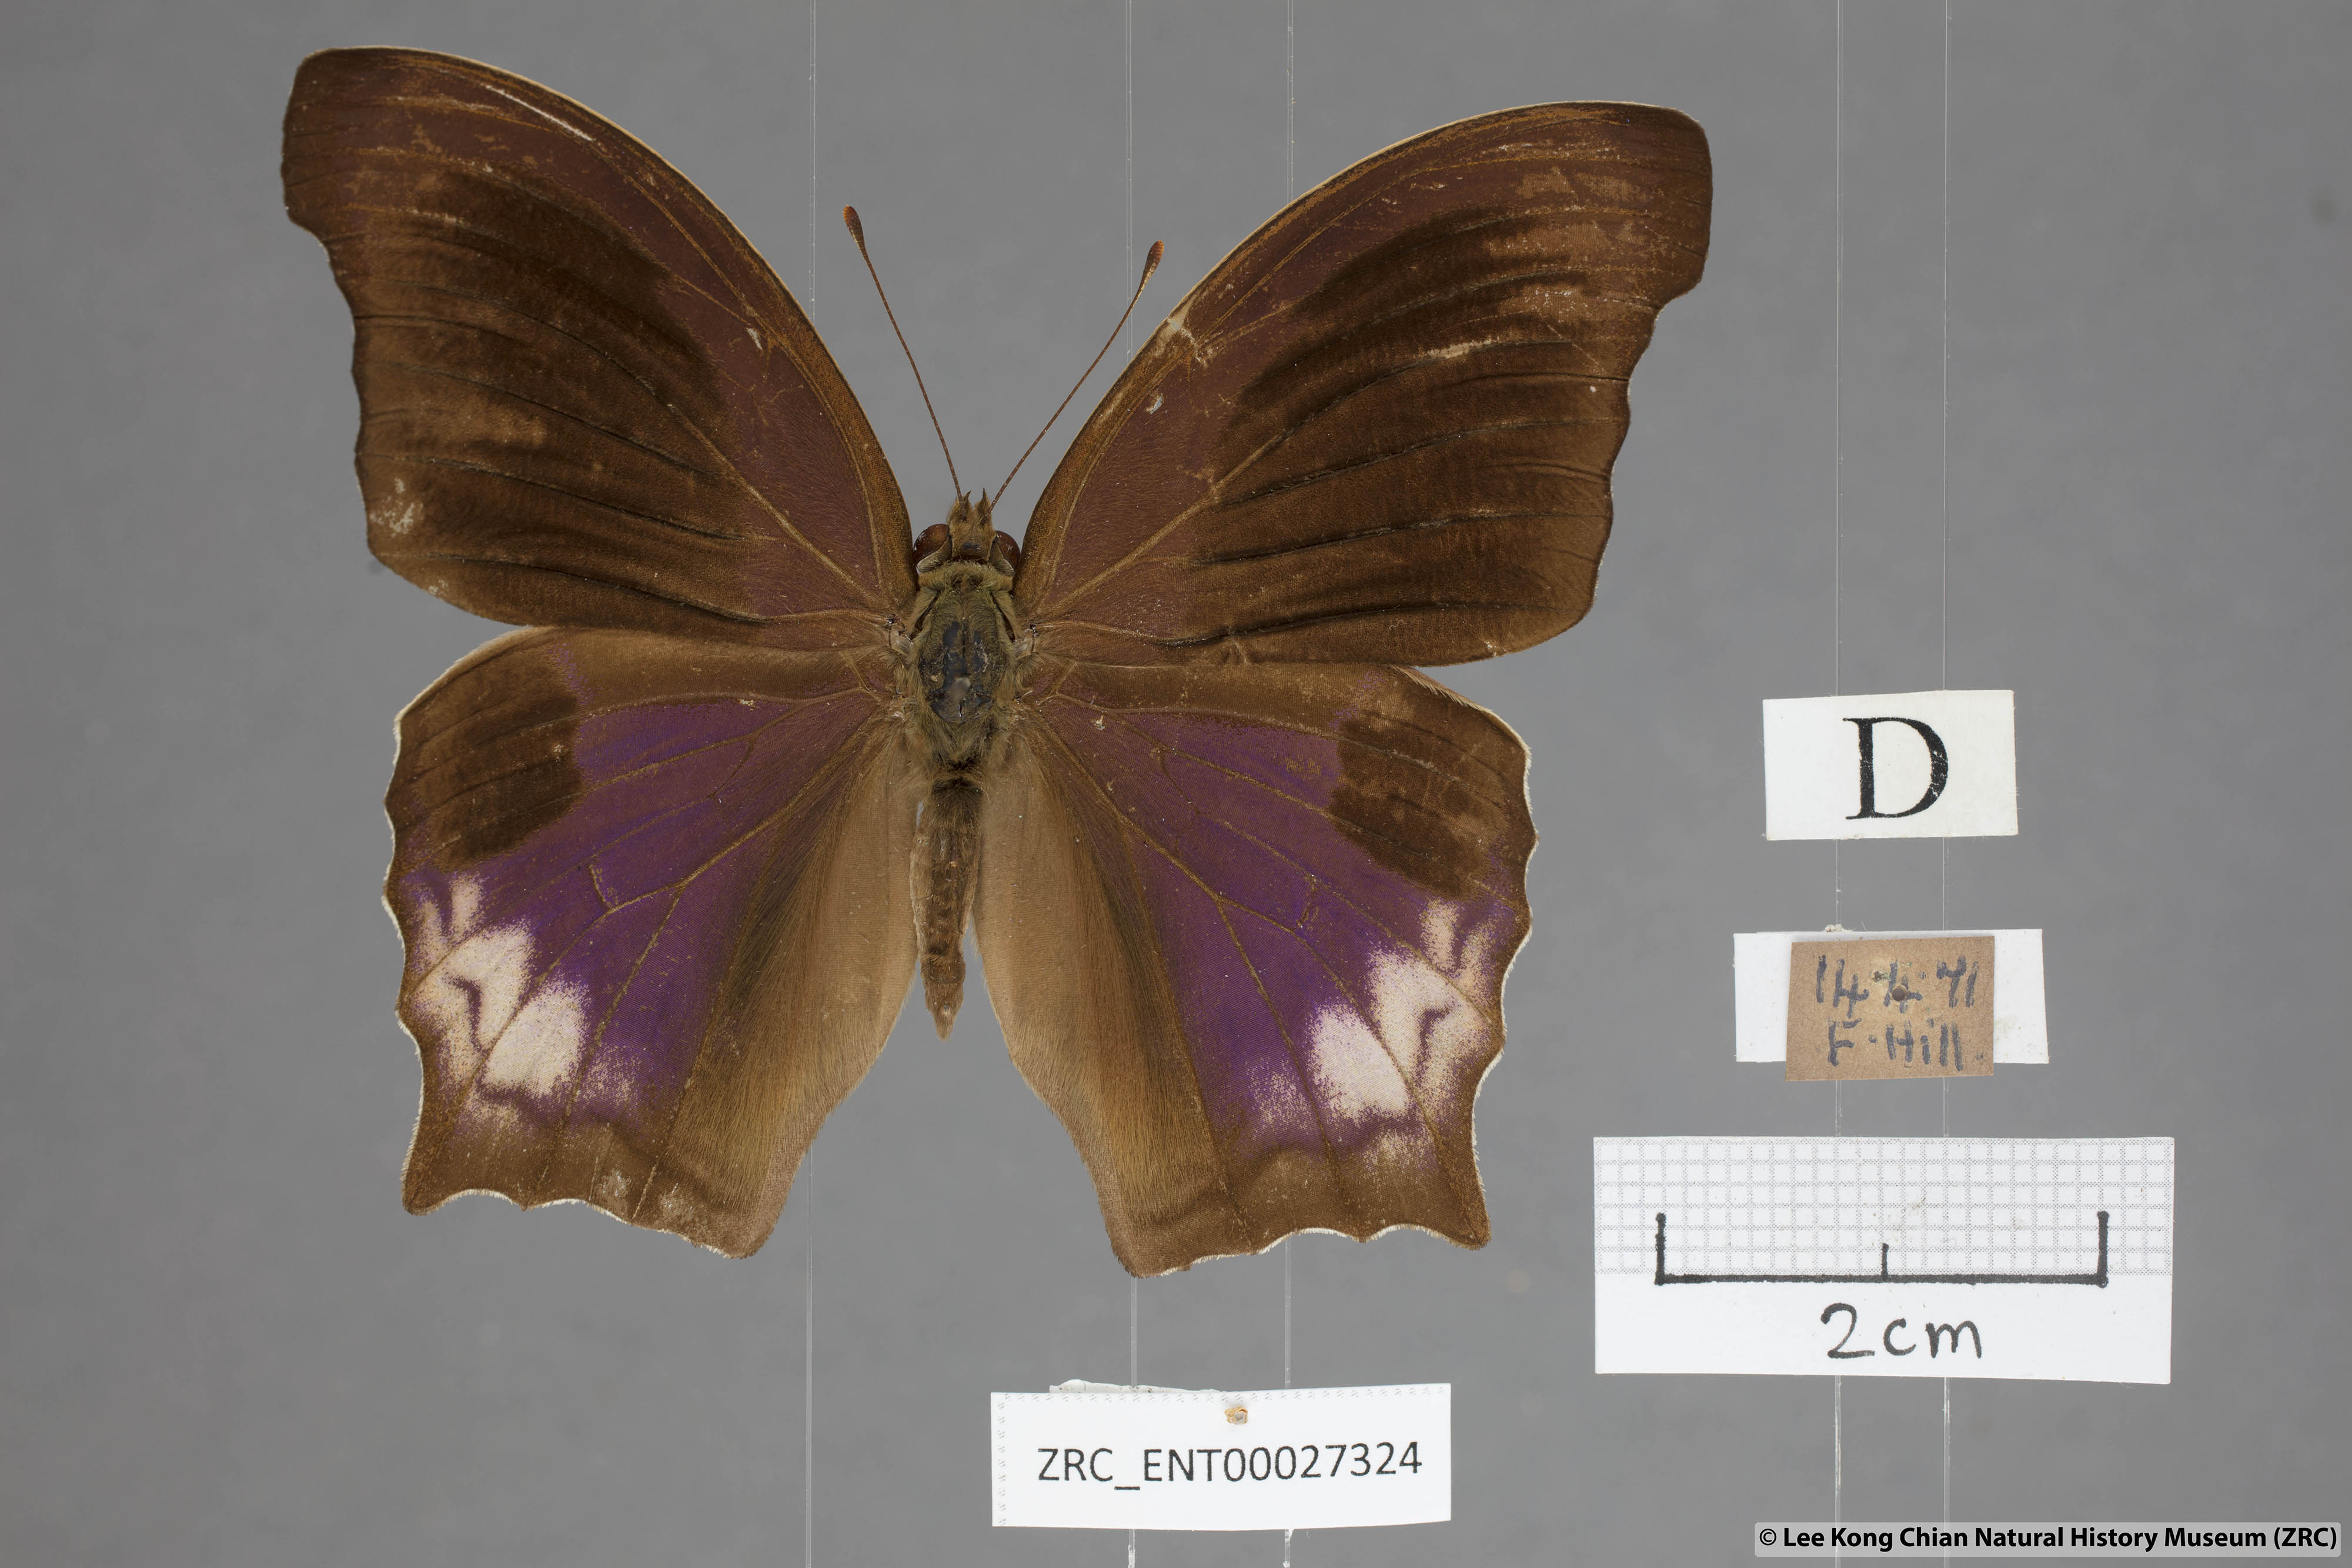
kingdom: Animalia
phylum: Arthropoda
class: Insecta
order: Lepidoptera
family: Nymphalidae
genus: Terinos
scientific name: Terinos atlita
